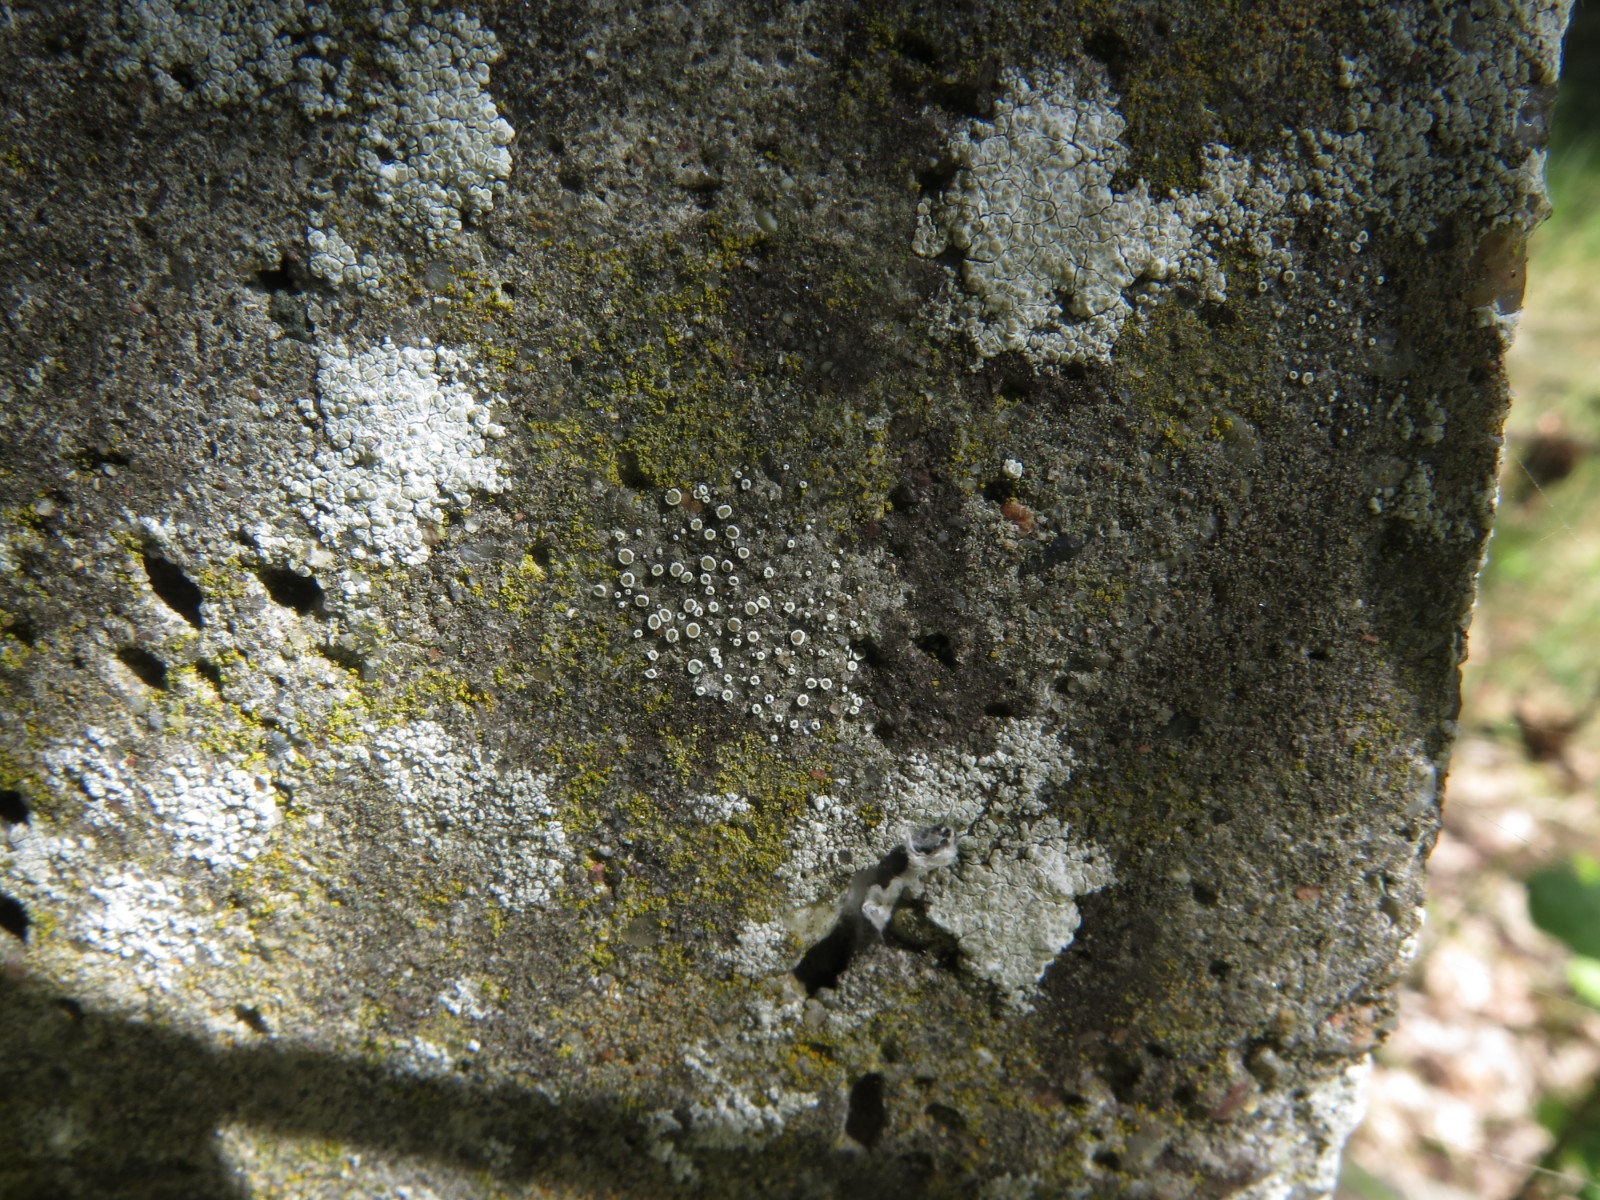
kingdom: Fungi
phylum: Ascomycota
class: Lecanoromycetes
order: Lecanorales
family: Lecanoraceae
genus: Polyozosia
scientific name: Polyozosia dispersa
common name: spredt kantskivelav
